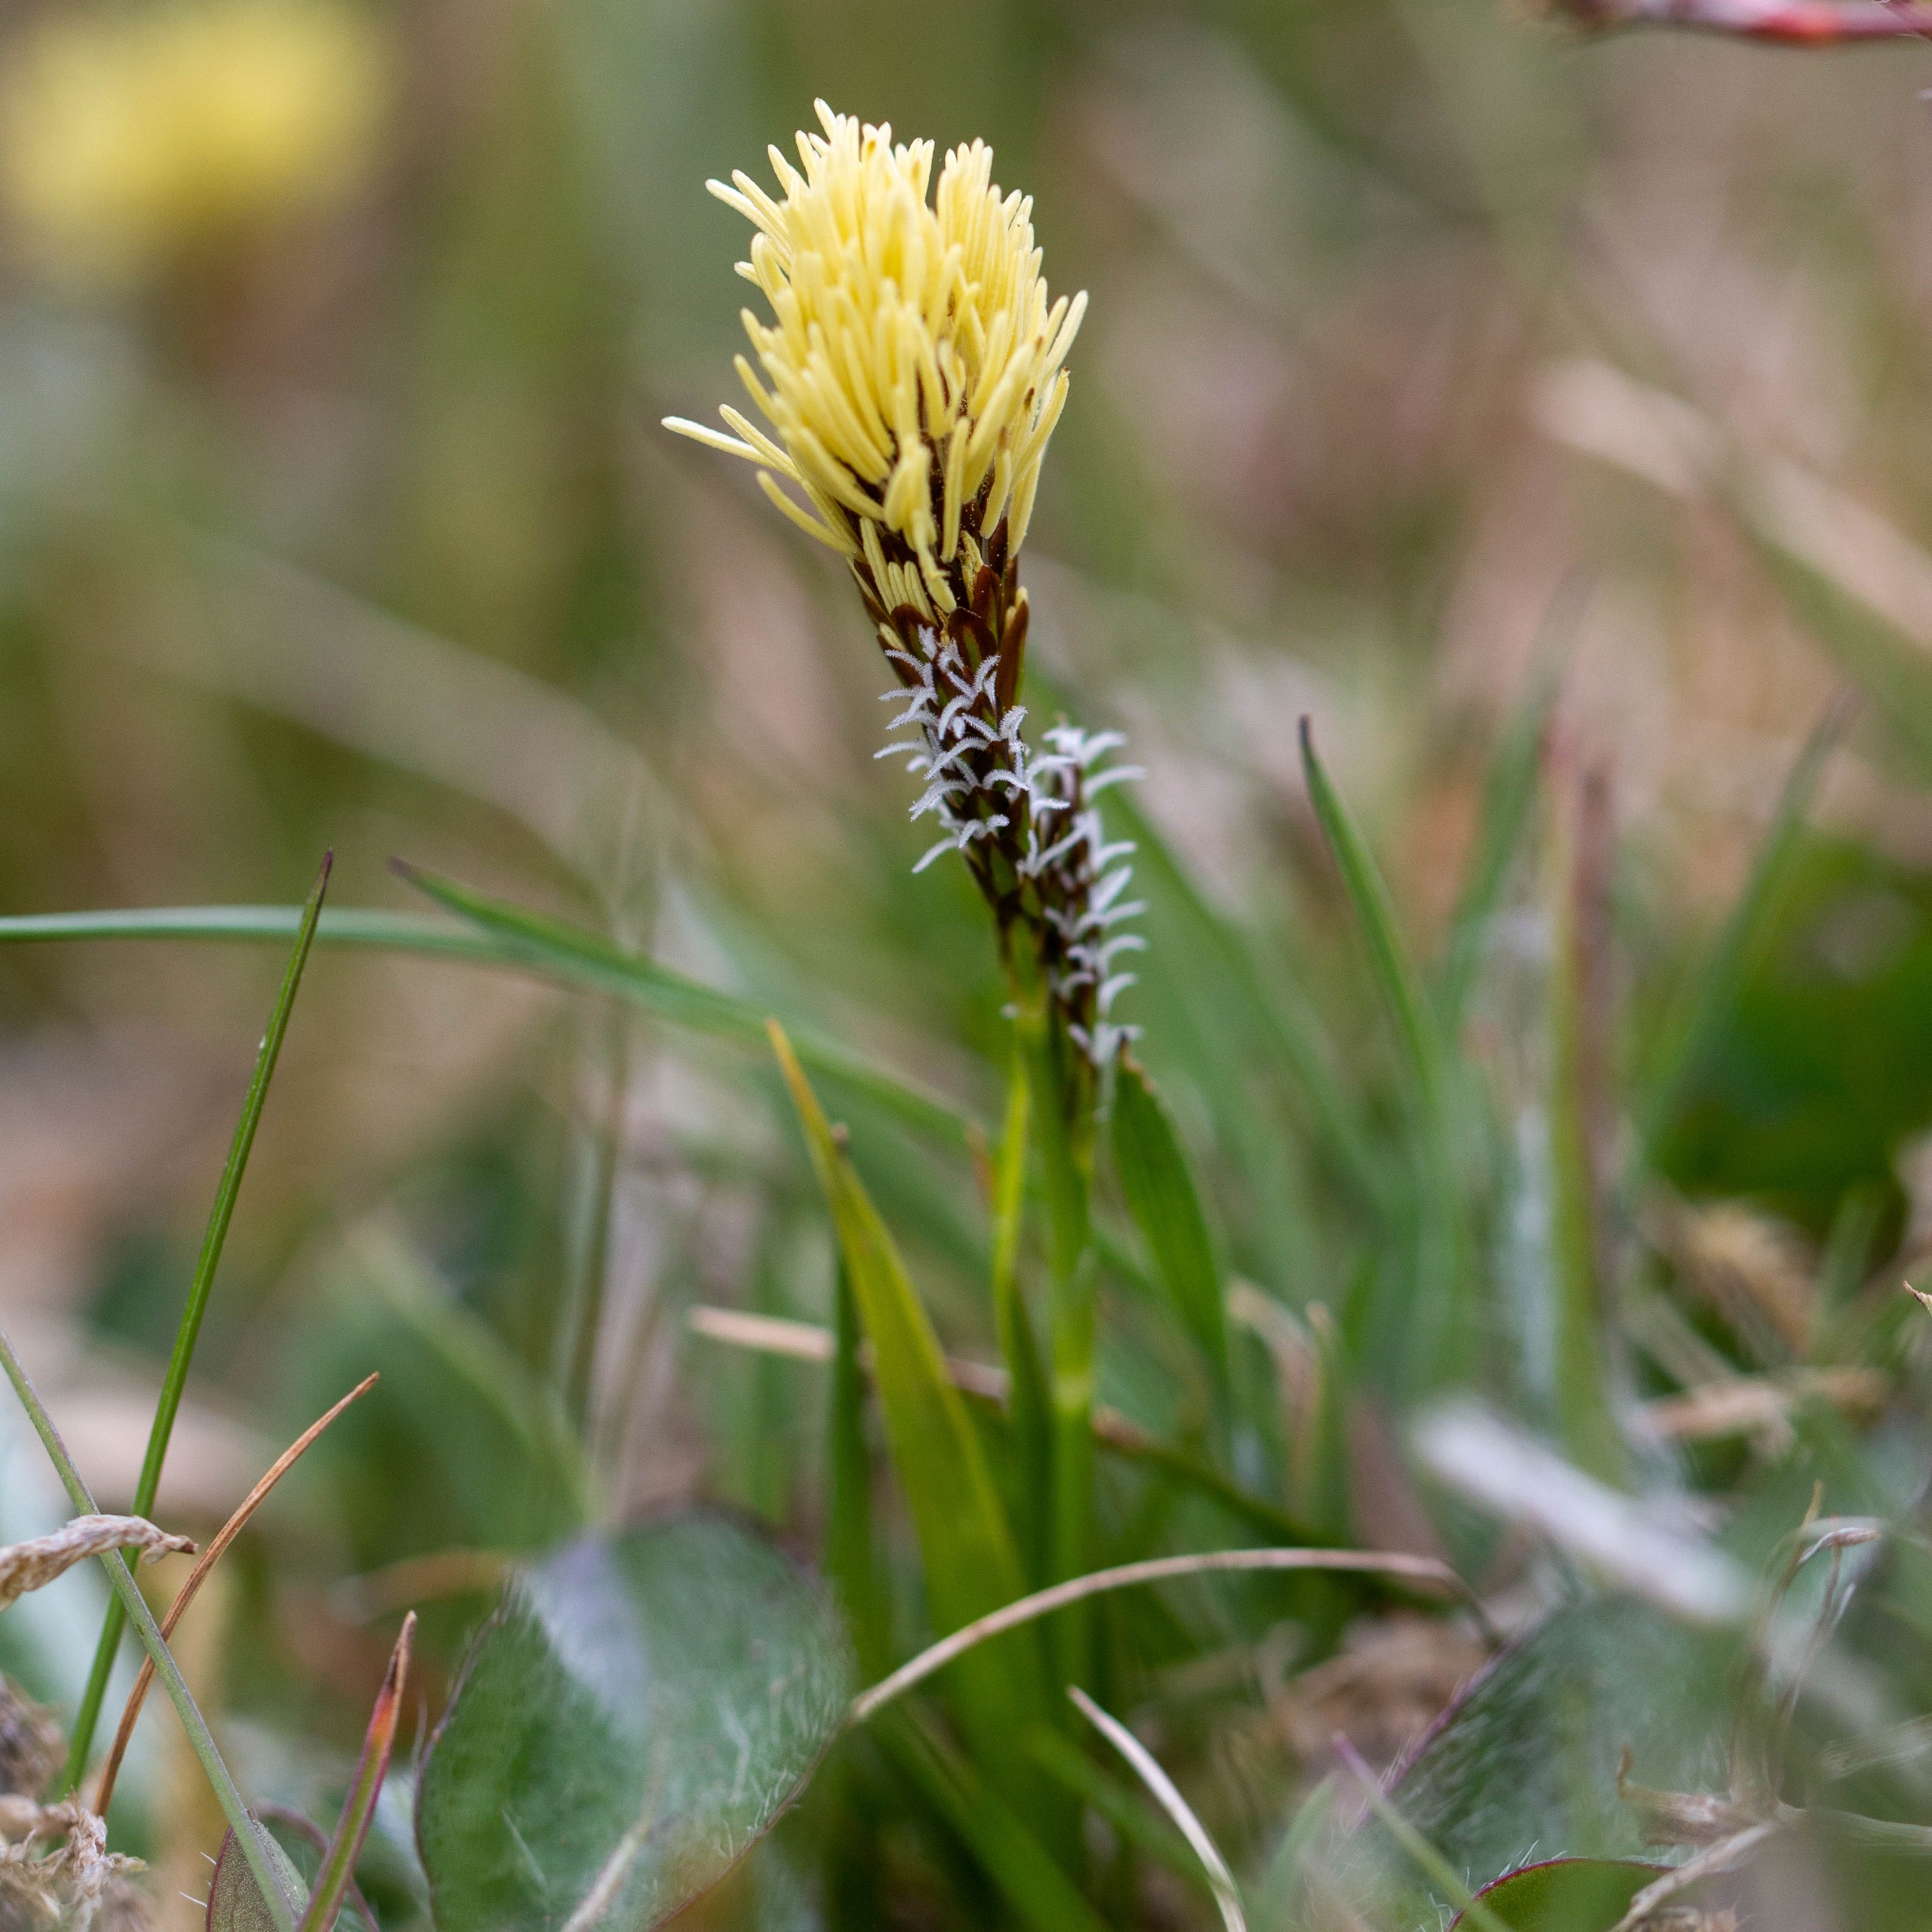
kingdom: Plantae
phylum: Tracheophyta
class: Liliopsida
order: Poales
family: Cyperaceae
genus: Carex
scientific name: Carex caryophyllea
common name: Vår-star
